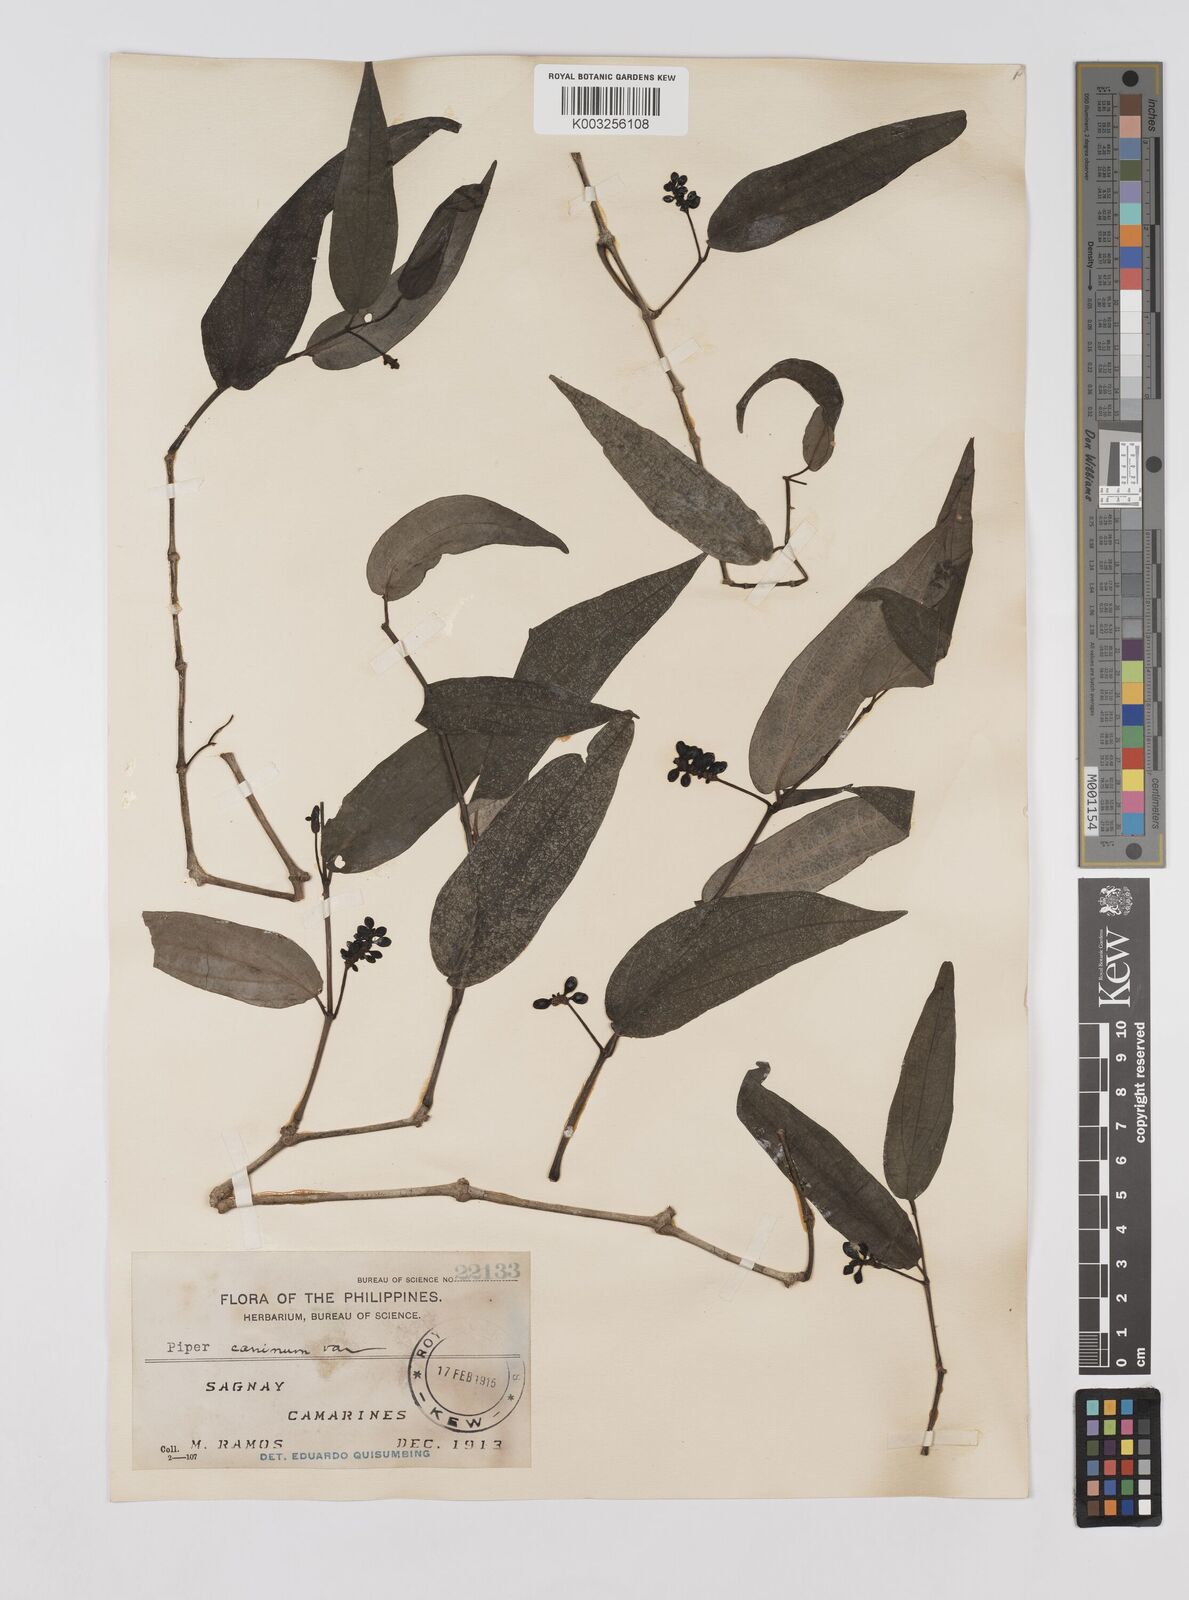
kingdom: Plantae
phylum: Tracheophyta
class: Magnoliopsida
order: Piperales
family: Piperaceae
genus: Piper
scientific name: Piper lanatum
